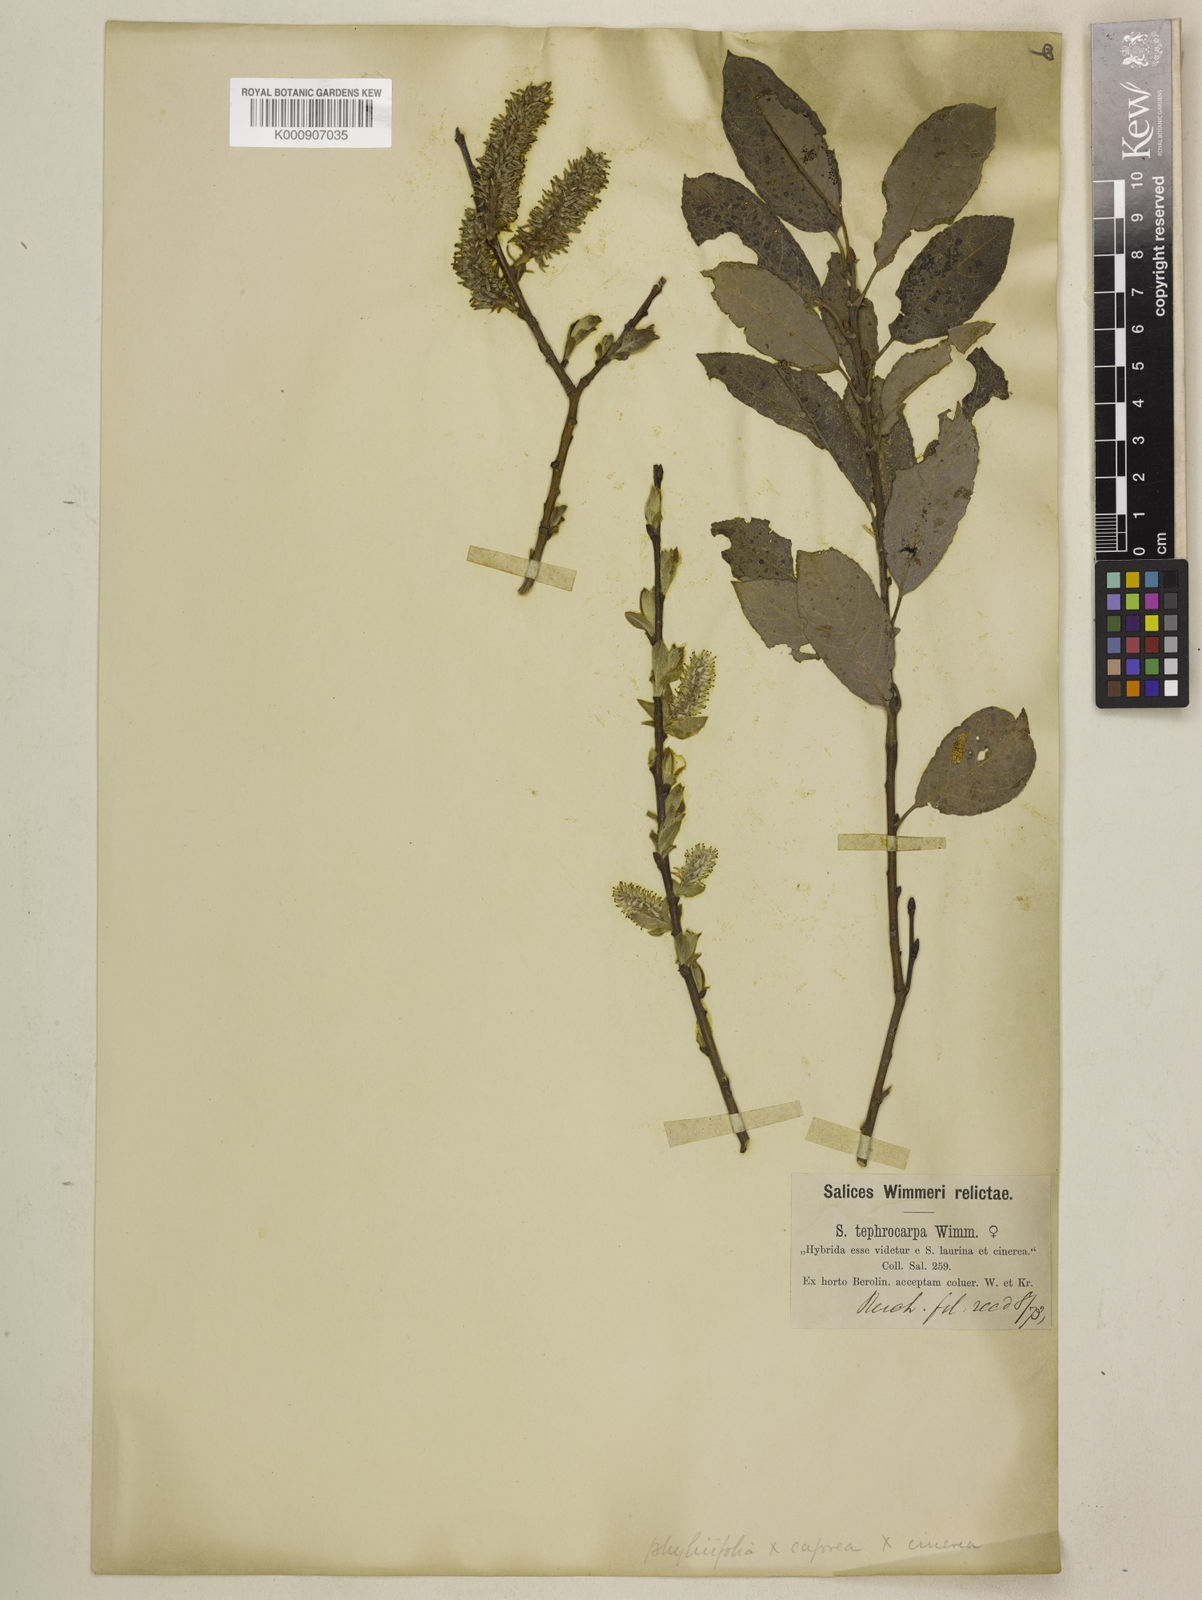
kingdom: Plantae
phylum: Tracheophyta
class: Magnoliopsida
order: Malpighiales
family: Salicaceae
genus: Salix
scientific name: Salix caprea
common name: Goat willow
